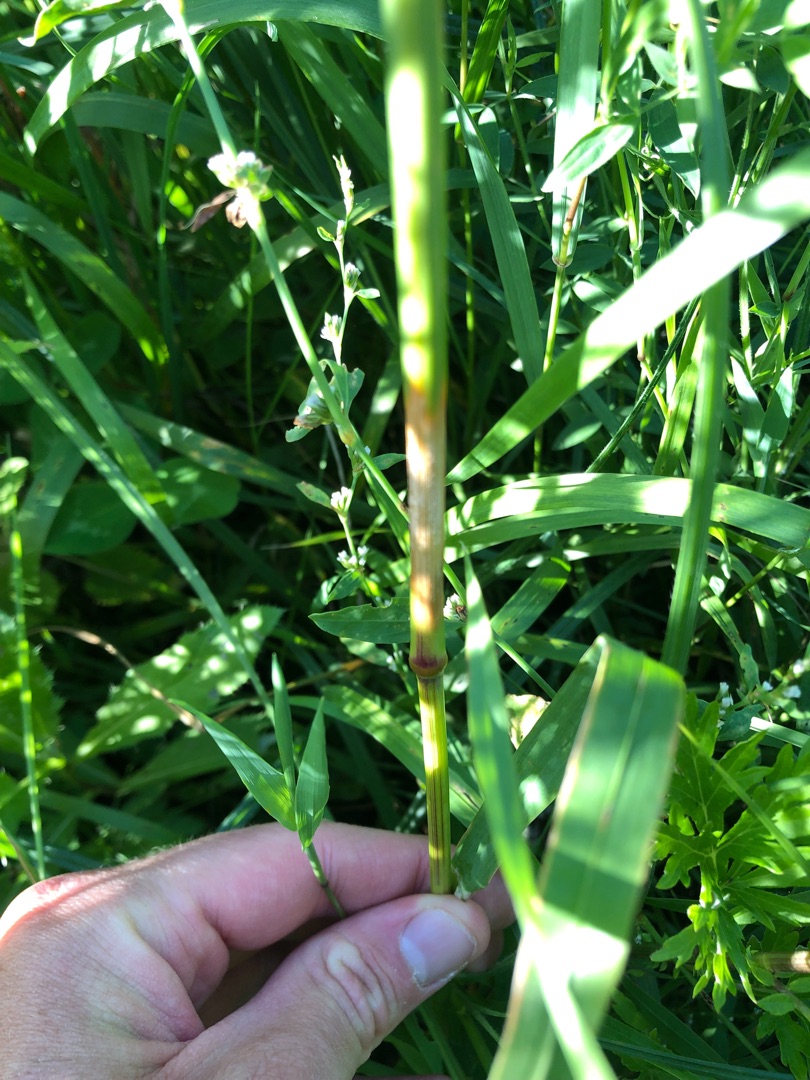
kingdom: Plantae
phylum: Tracheophyta
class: Liliopsida
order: Poales
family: Poaceae
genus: Dactylis
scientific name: Dactylis glomerata
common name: Almindelig hundegræs
